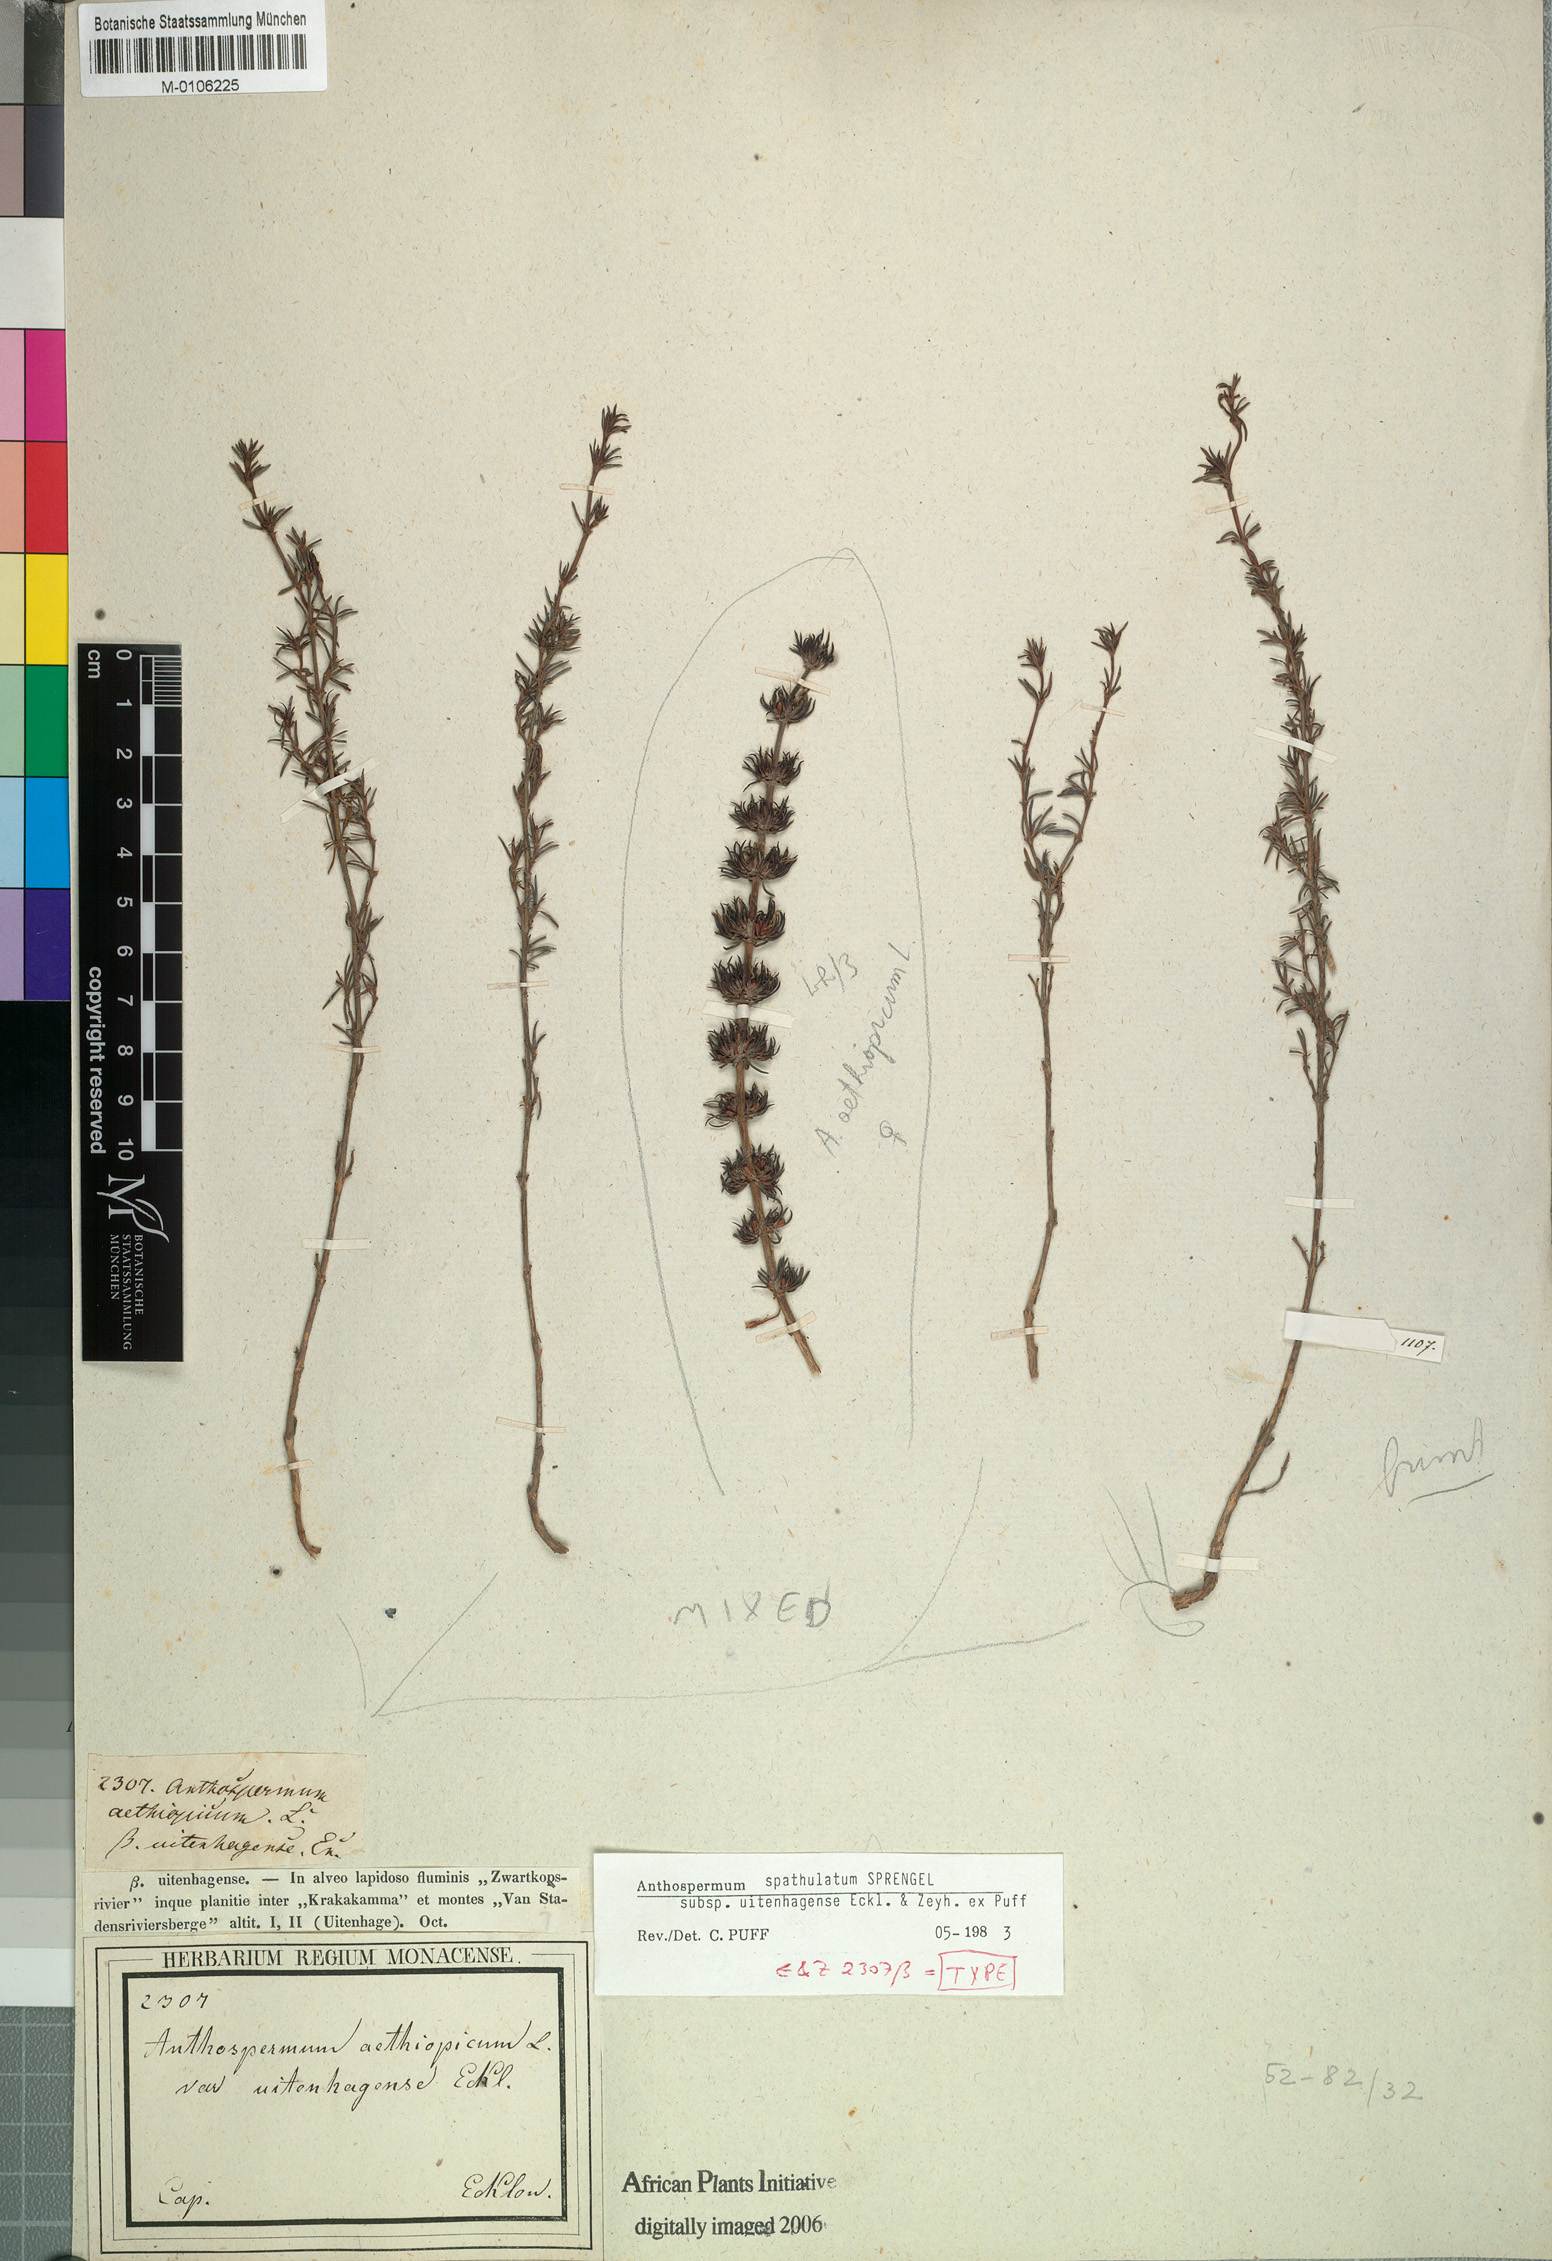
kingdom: Plantae
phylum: Tracheophyta
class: Magnoliopsida
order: Gentianales
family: Rubiaceae
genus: Anthospermum
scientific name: Anthospermum spathulatum
